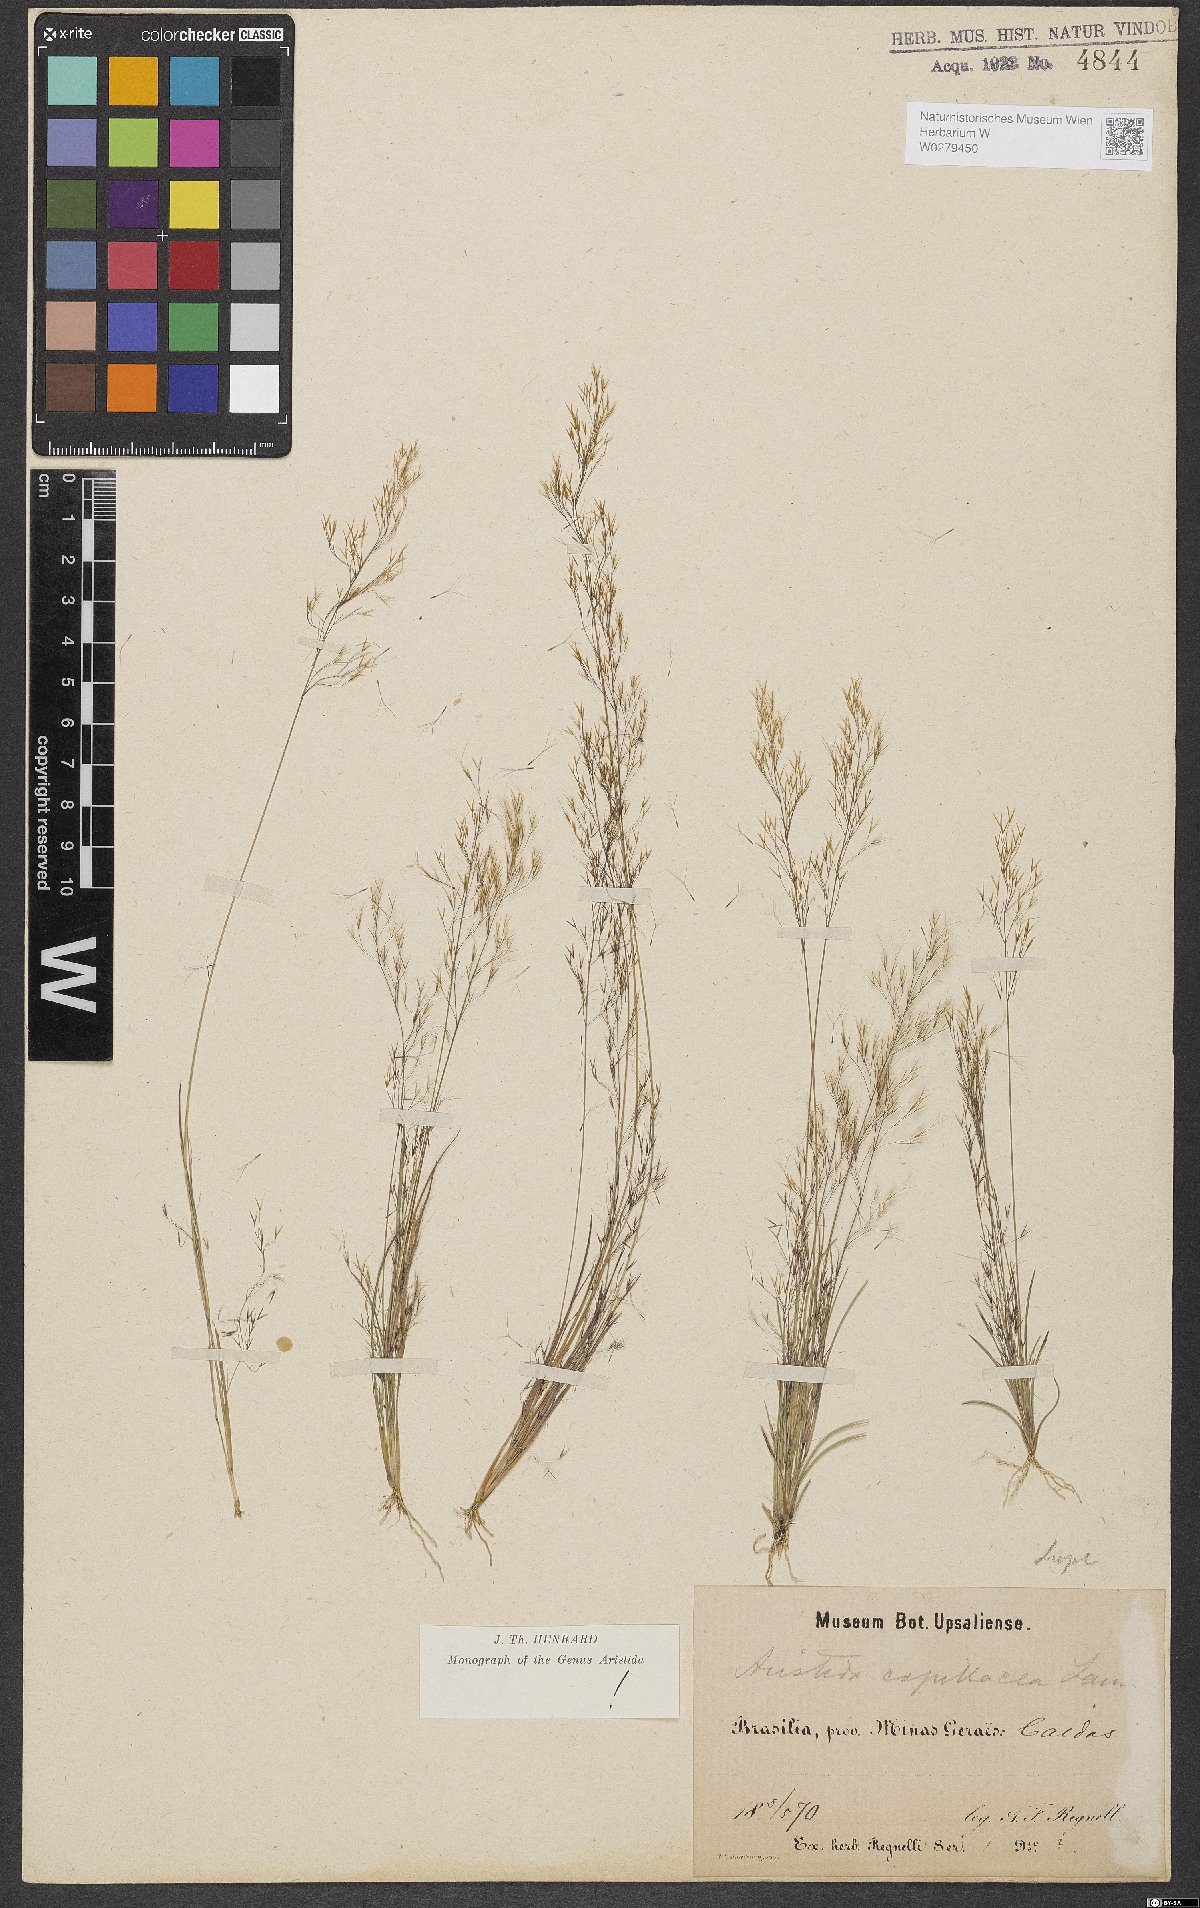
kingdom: Plantae
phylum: Tracheophyta
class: Liliopsida
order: Poales
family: Poaceae
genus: Aristida
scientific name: Aristida capillacea
